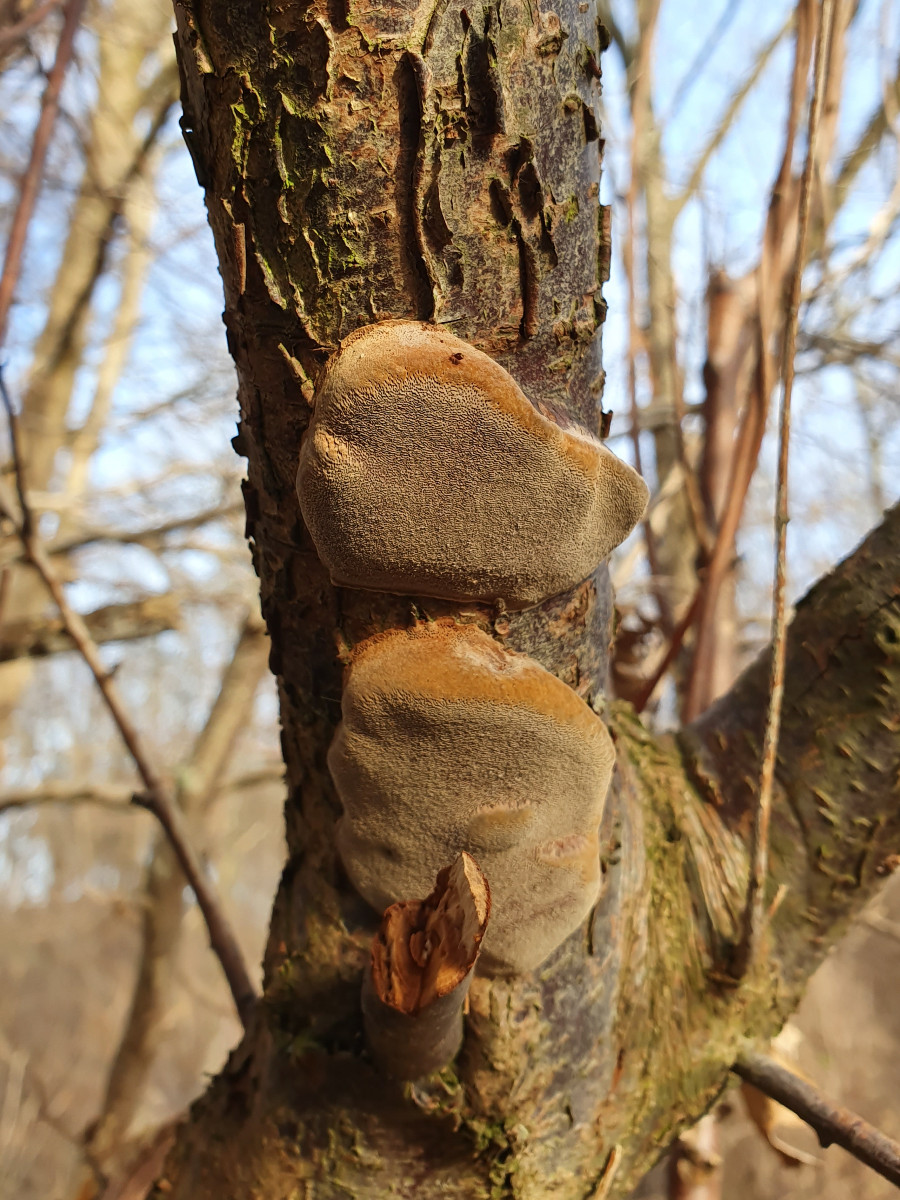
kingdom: Fungi
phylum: Basidiomycota
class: Agaricomycetes
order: Hymenochaetales
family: Hymenochaetaceae
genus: Phellinus
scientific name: Phellinus pomaceus
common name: blomme-ildporesvamp
